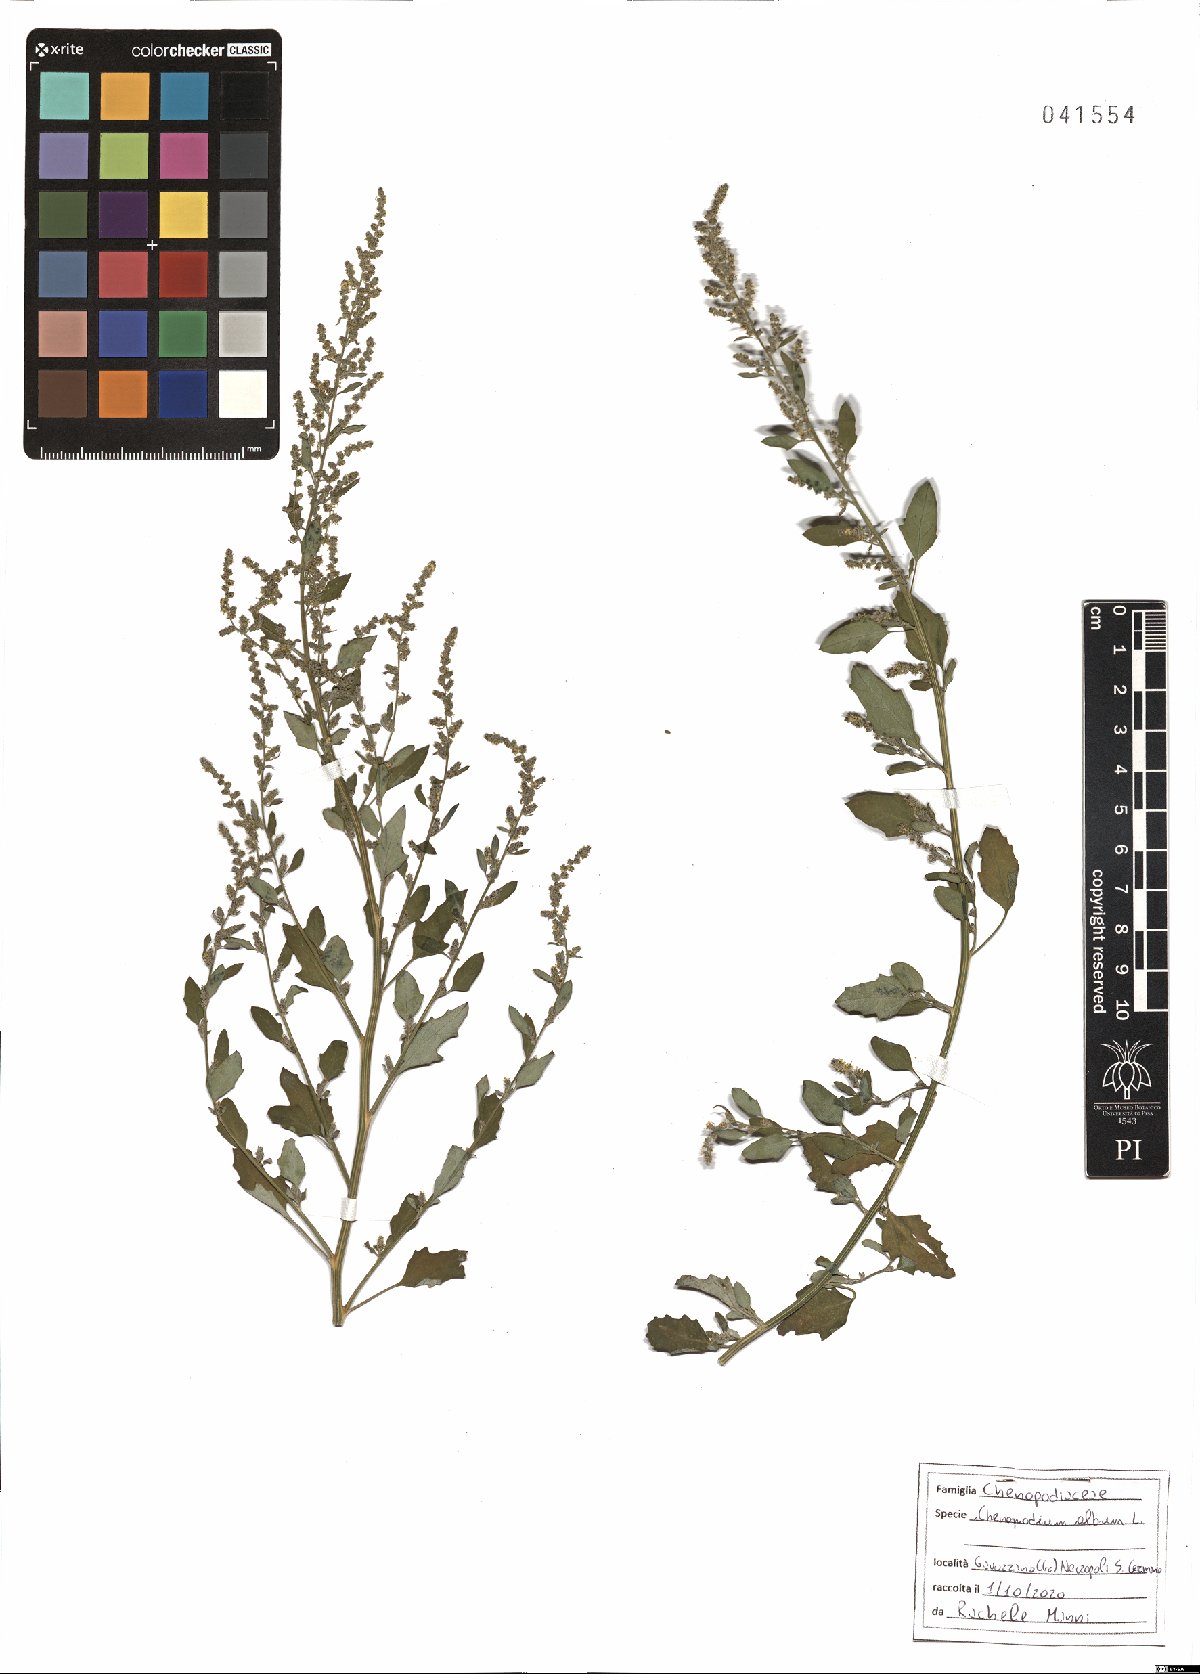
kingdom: Plantae
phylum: Tracheophyta
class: Magnoliopsida
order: Caryophyllales
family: Amaranthaceae
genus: Chenopodium
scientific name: Chenopodium album
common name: Fat-hen
